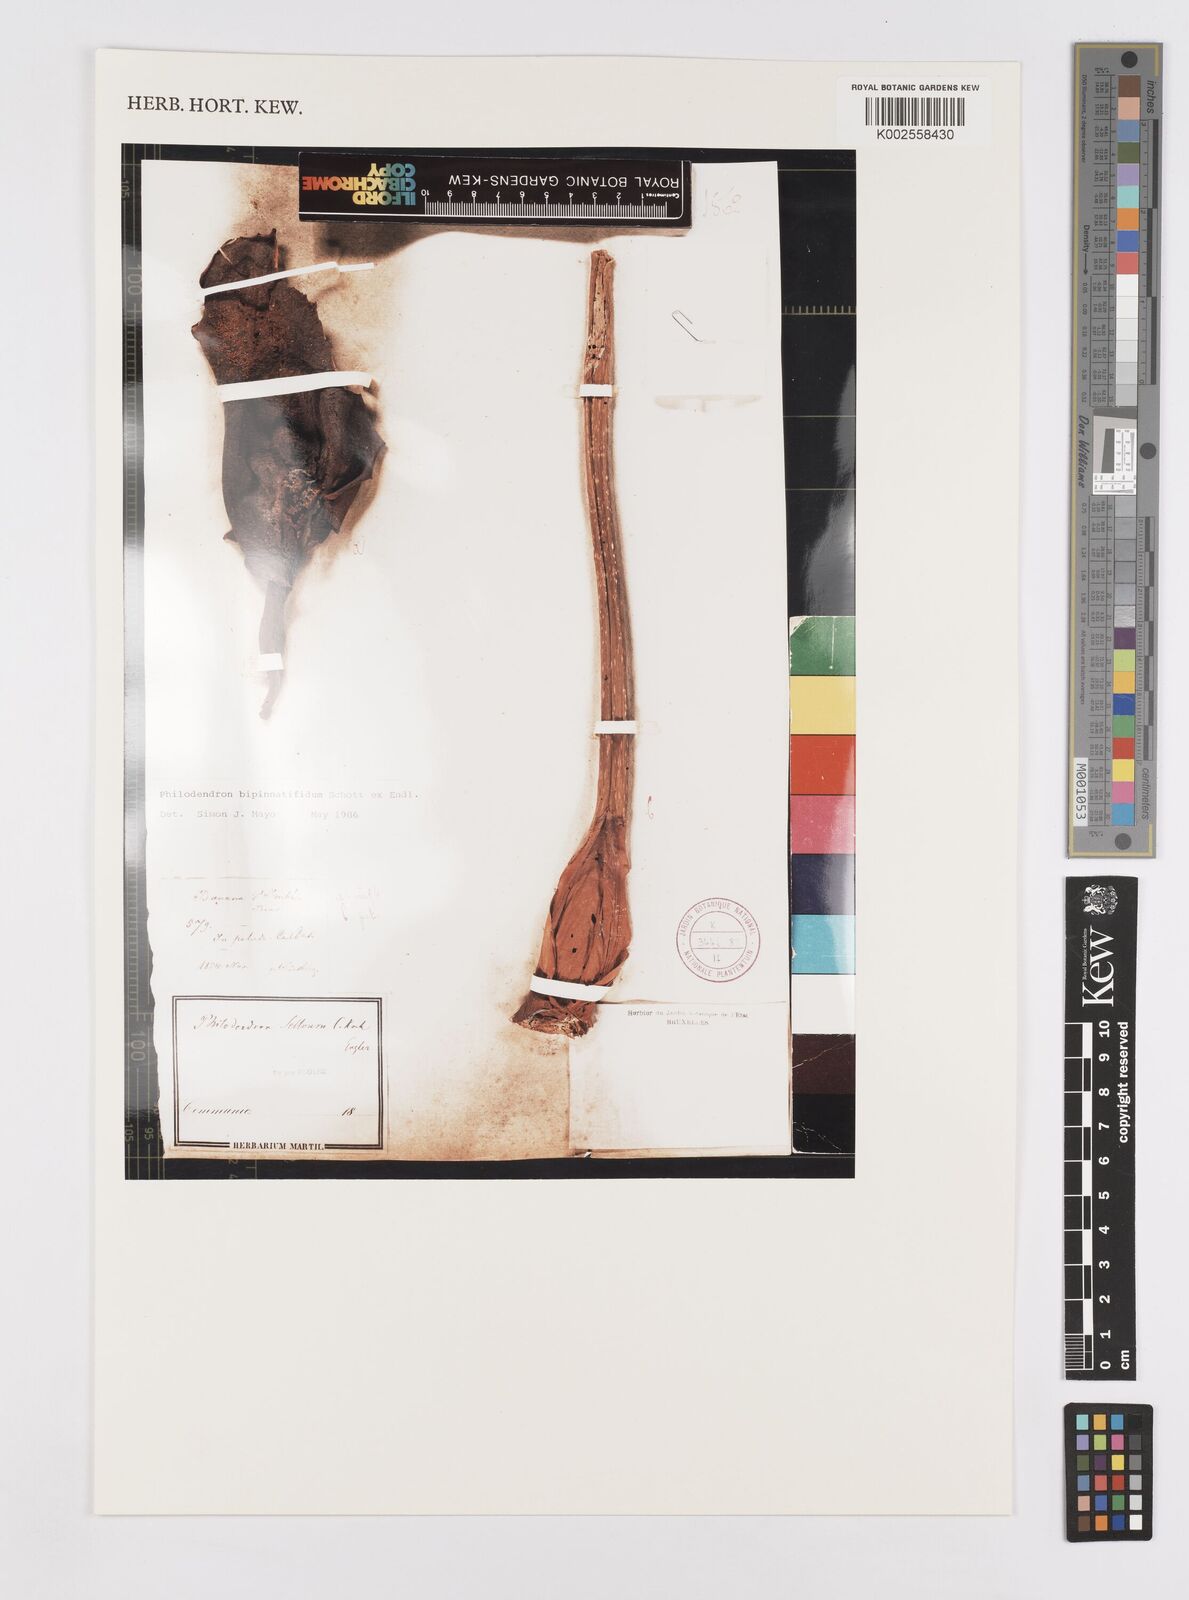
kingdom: Plantae
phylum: Tracheophyta
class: Liliopsida
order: Alismatales
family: Araceae
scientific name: Araceae
